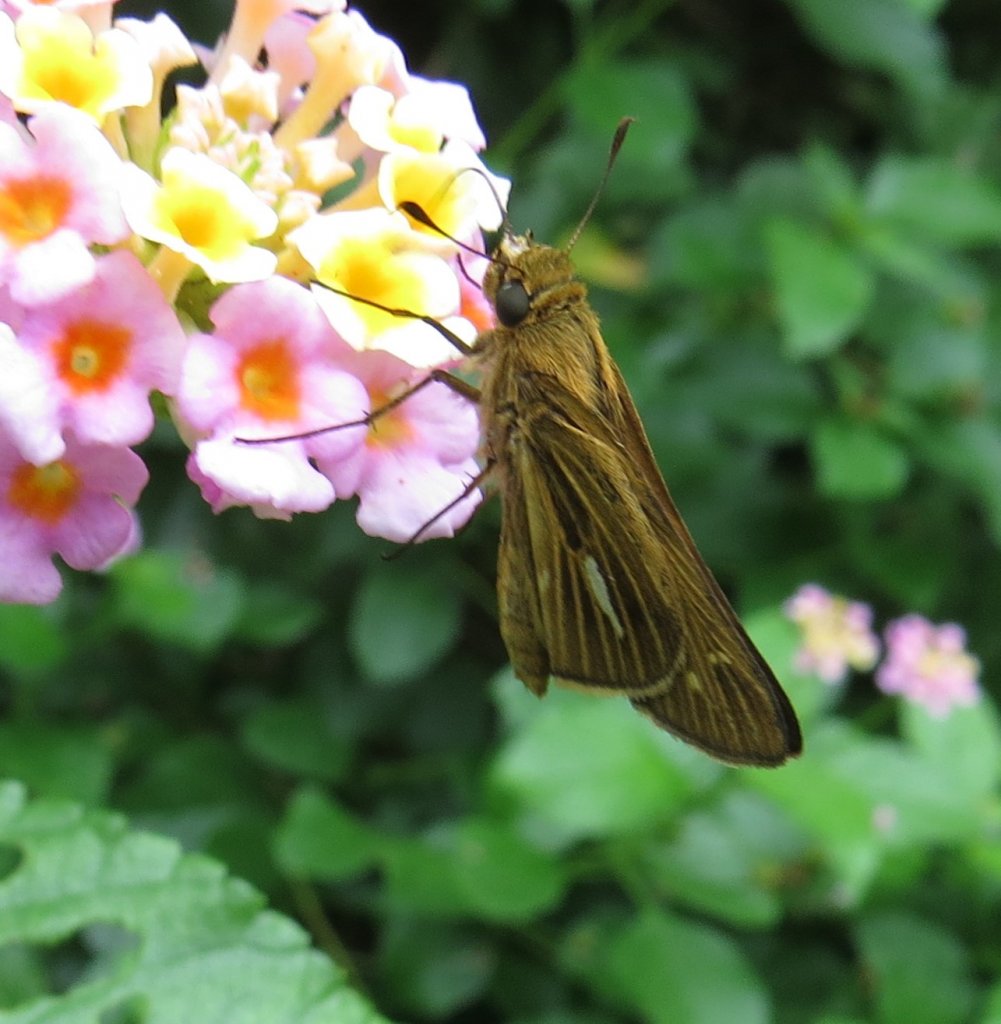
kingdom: Animalia
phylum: Arthropoda
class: Insecta
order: Lepidoptera
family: Hesperiidae
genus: Panoquina
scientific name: Panoquina panoquin
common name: Salt Marsh Skipper
